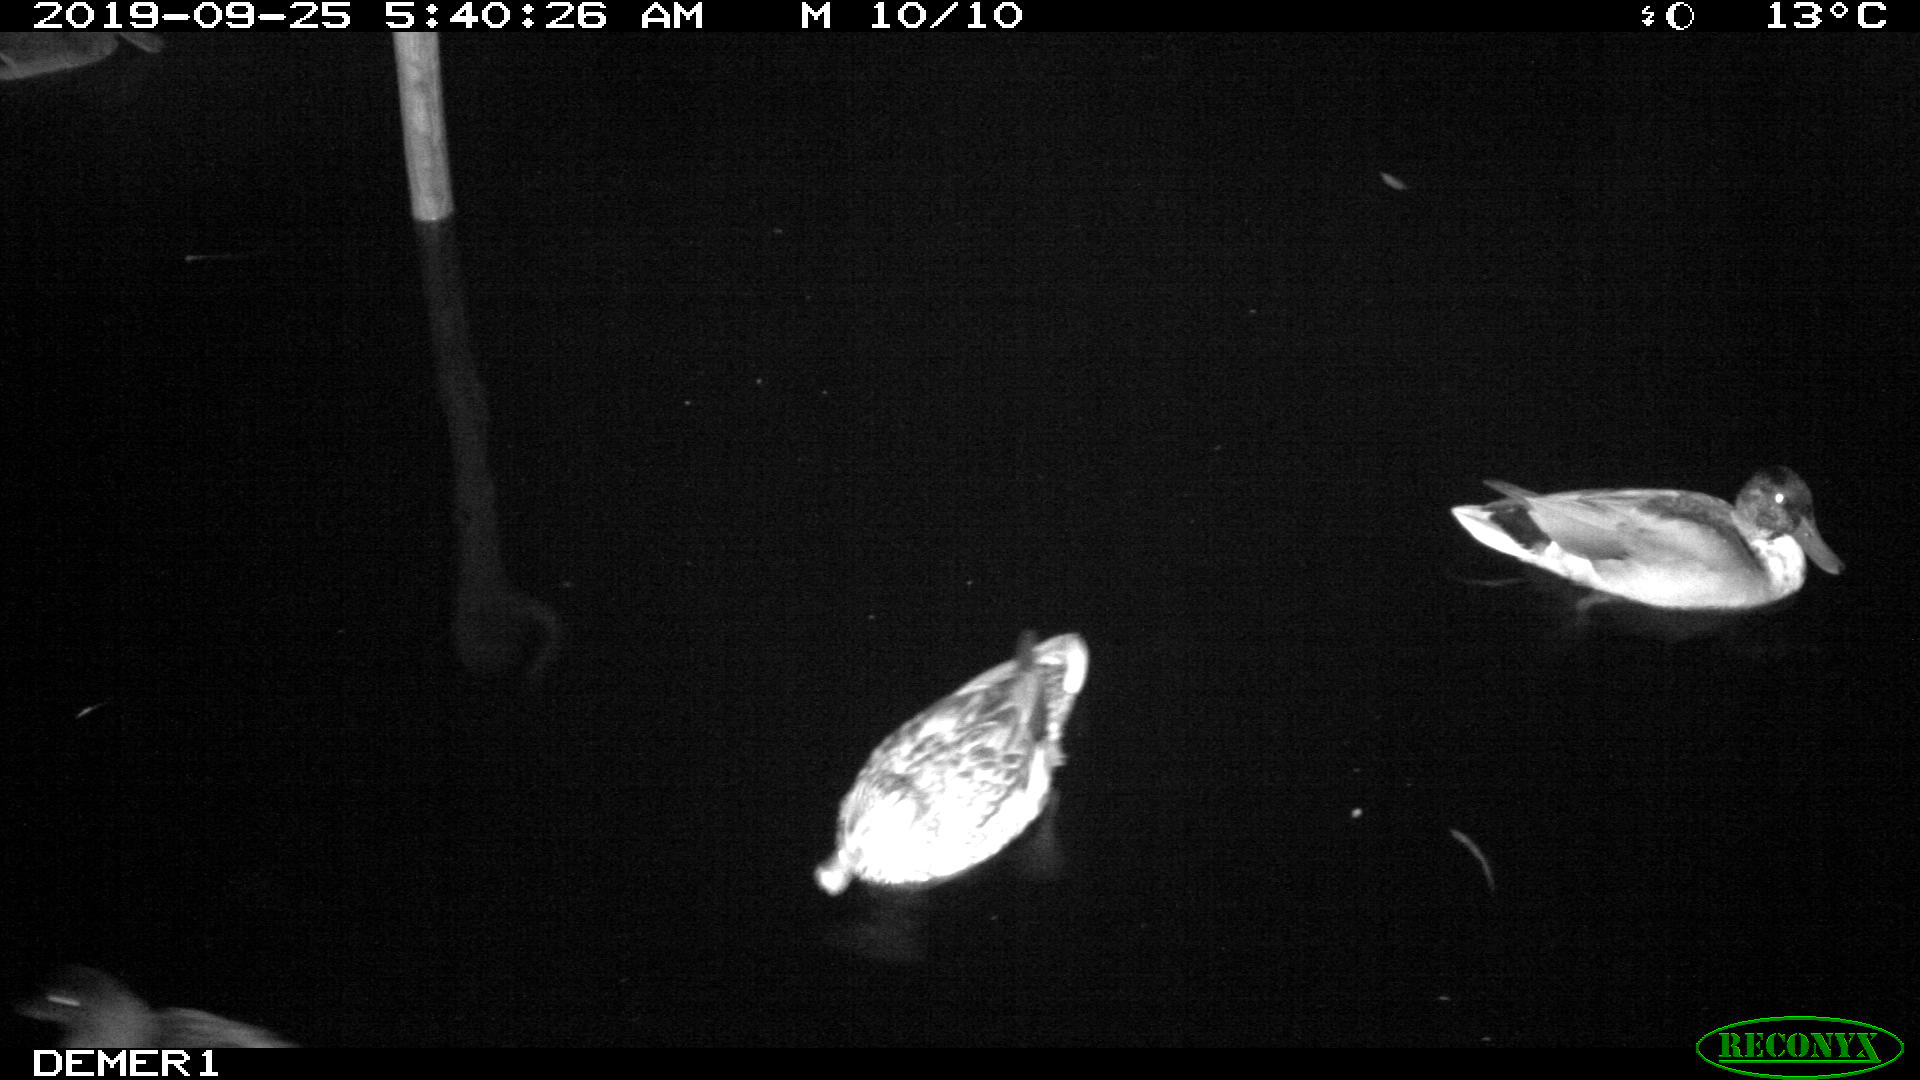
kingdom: Animalia
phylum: Chordata
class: Aves
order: Anseriformes
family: Anatidae
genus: Anas
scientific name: Anas platyrhynchos
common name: Mallard
